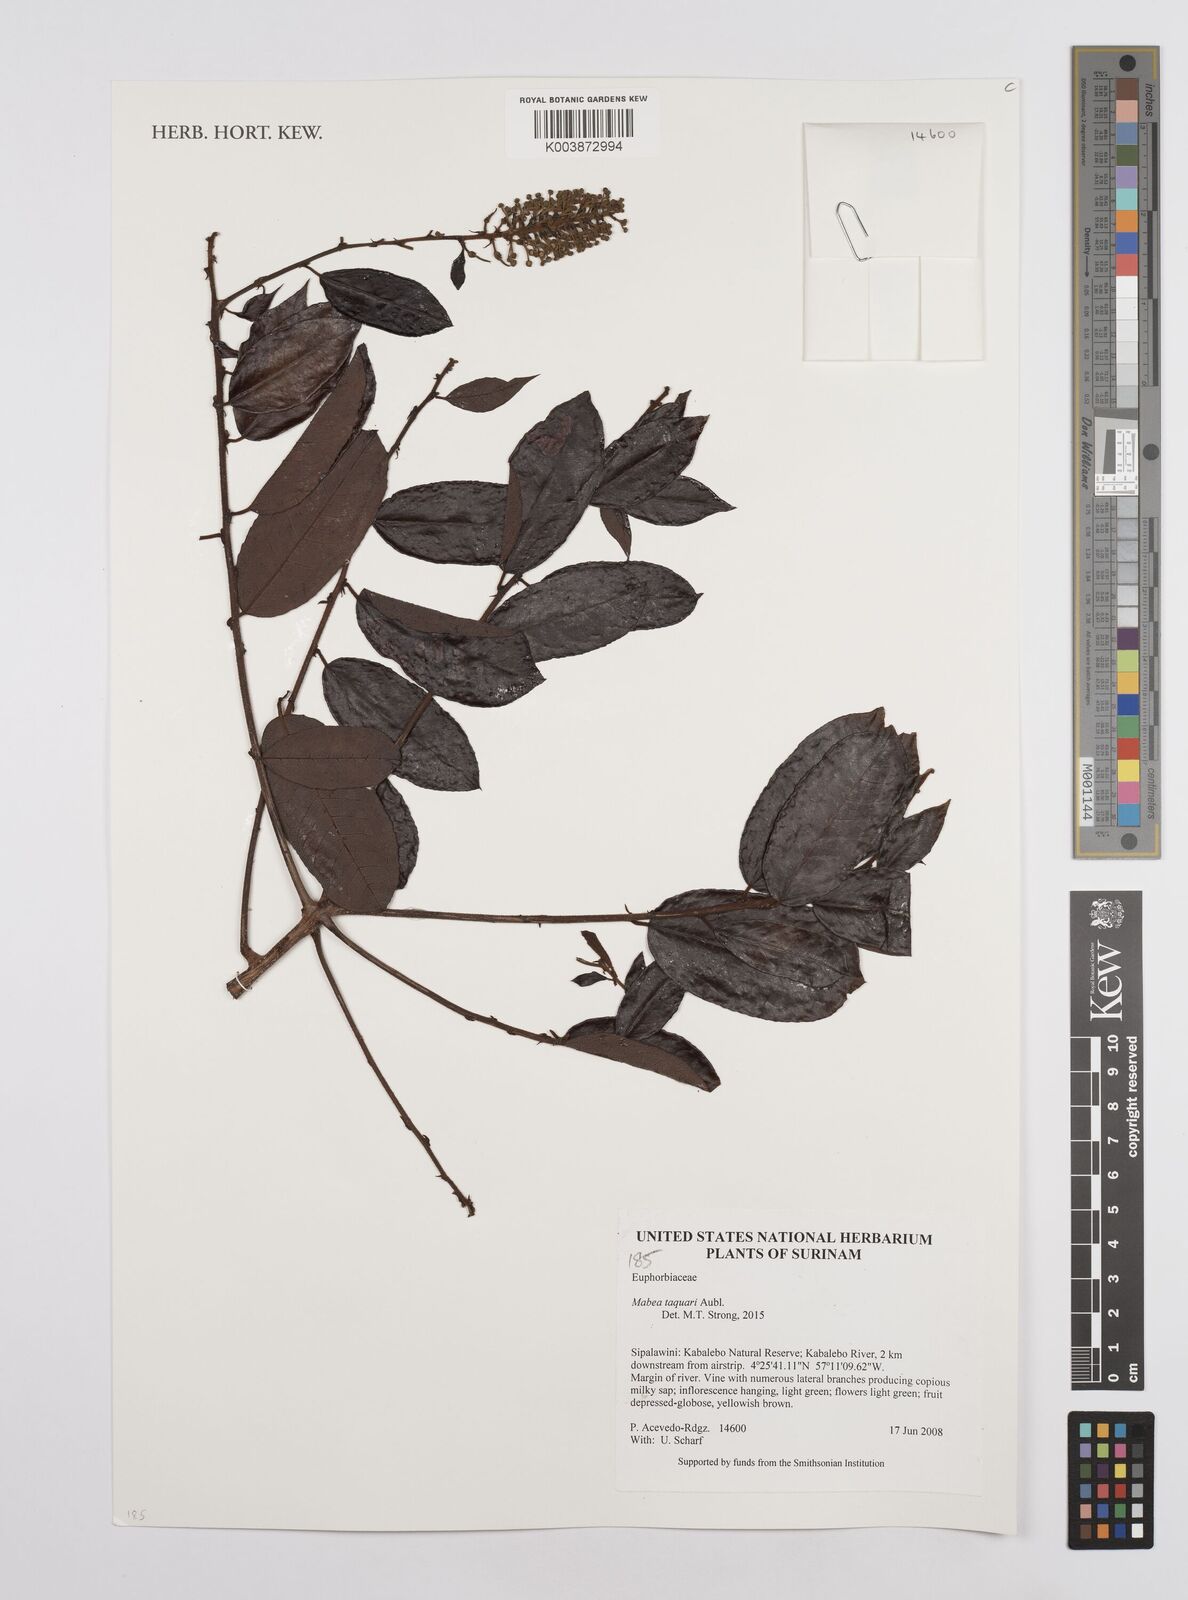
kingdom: Plantae
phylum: Tracheophyta
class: Magnoliopsida
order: Malpighiales
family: Euphorbiaceae
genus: Mabea
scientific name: Mabea taquari
